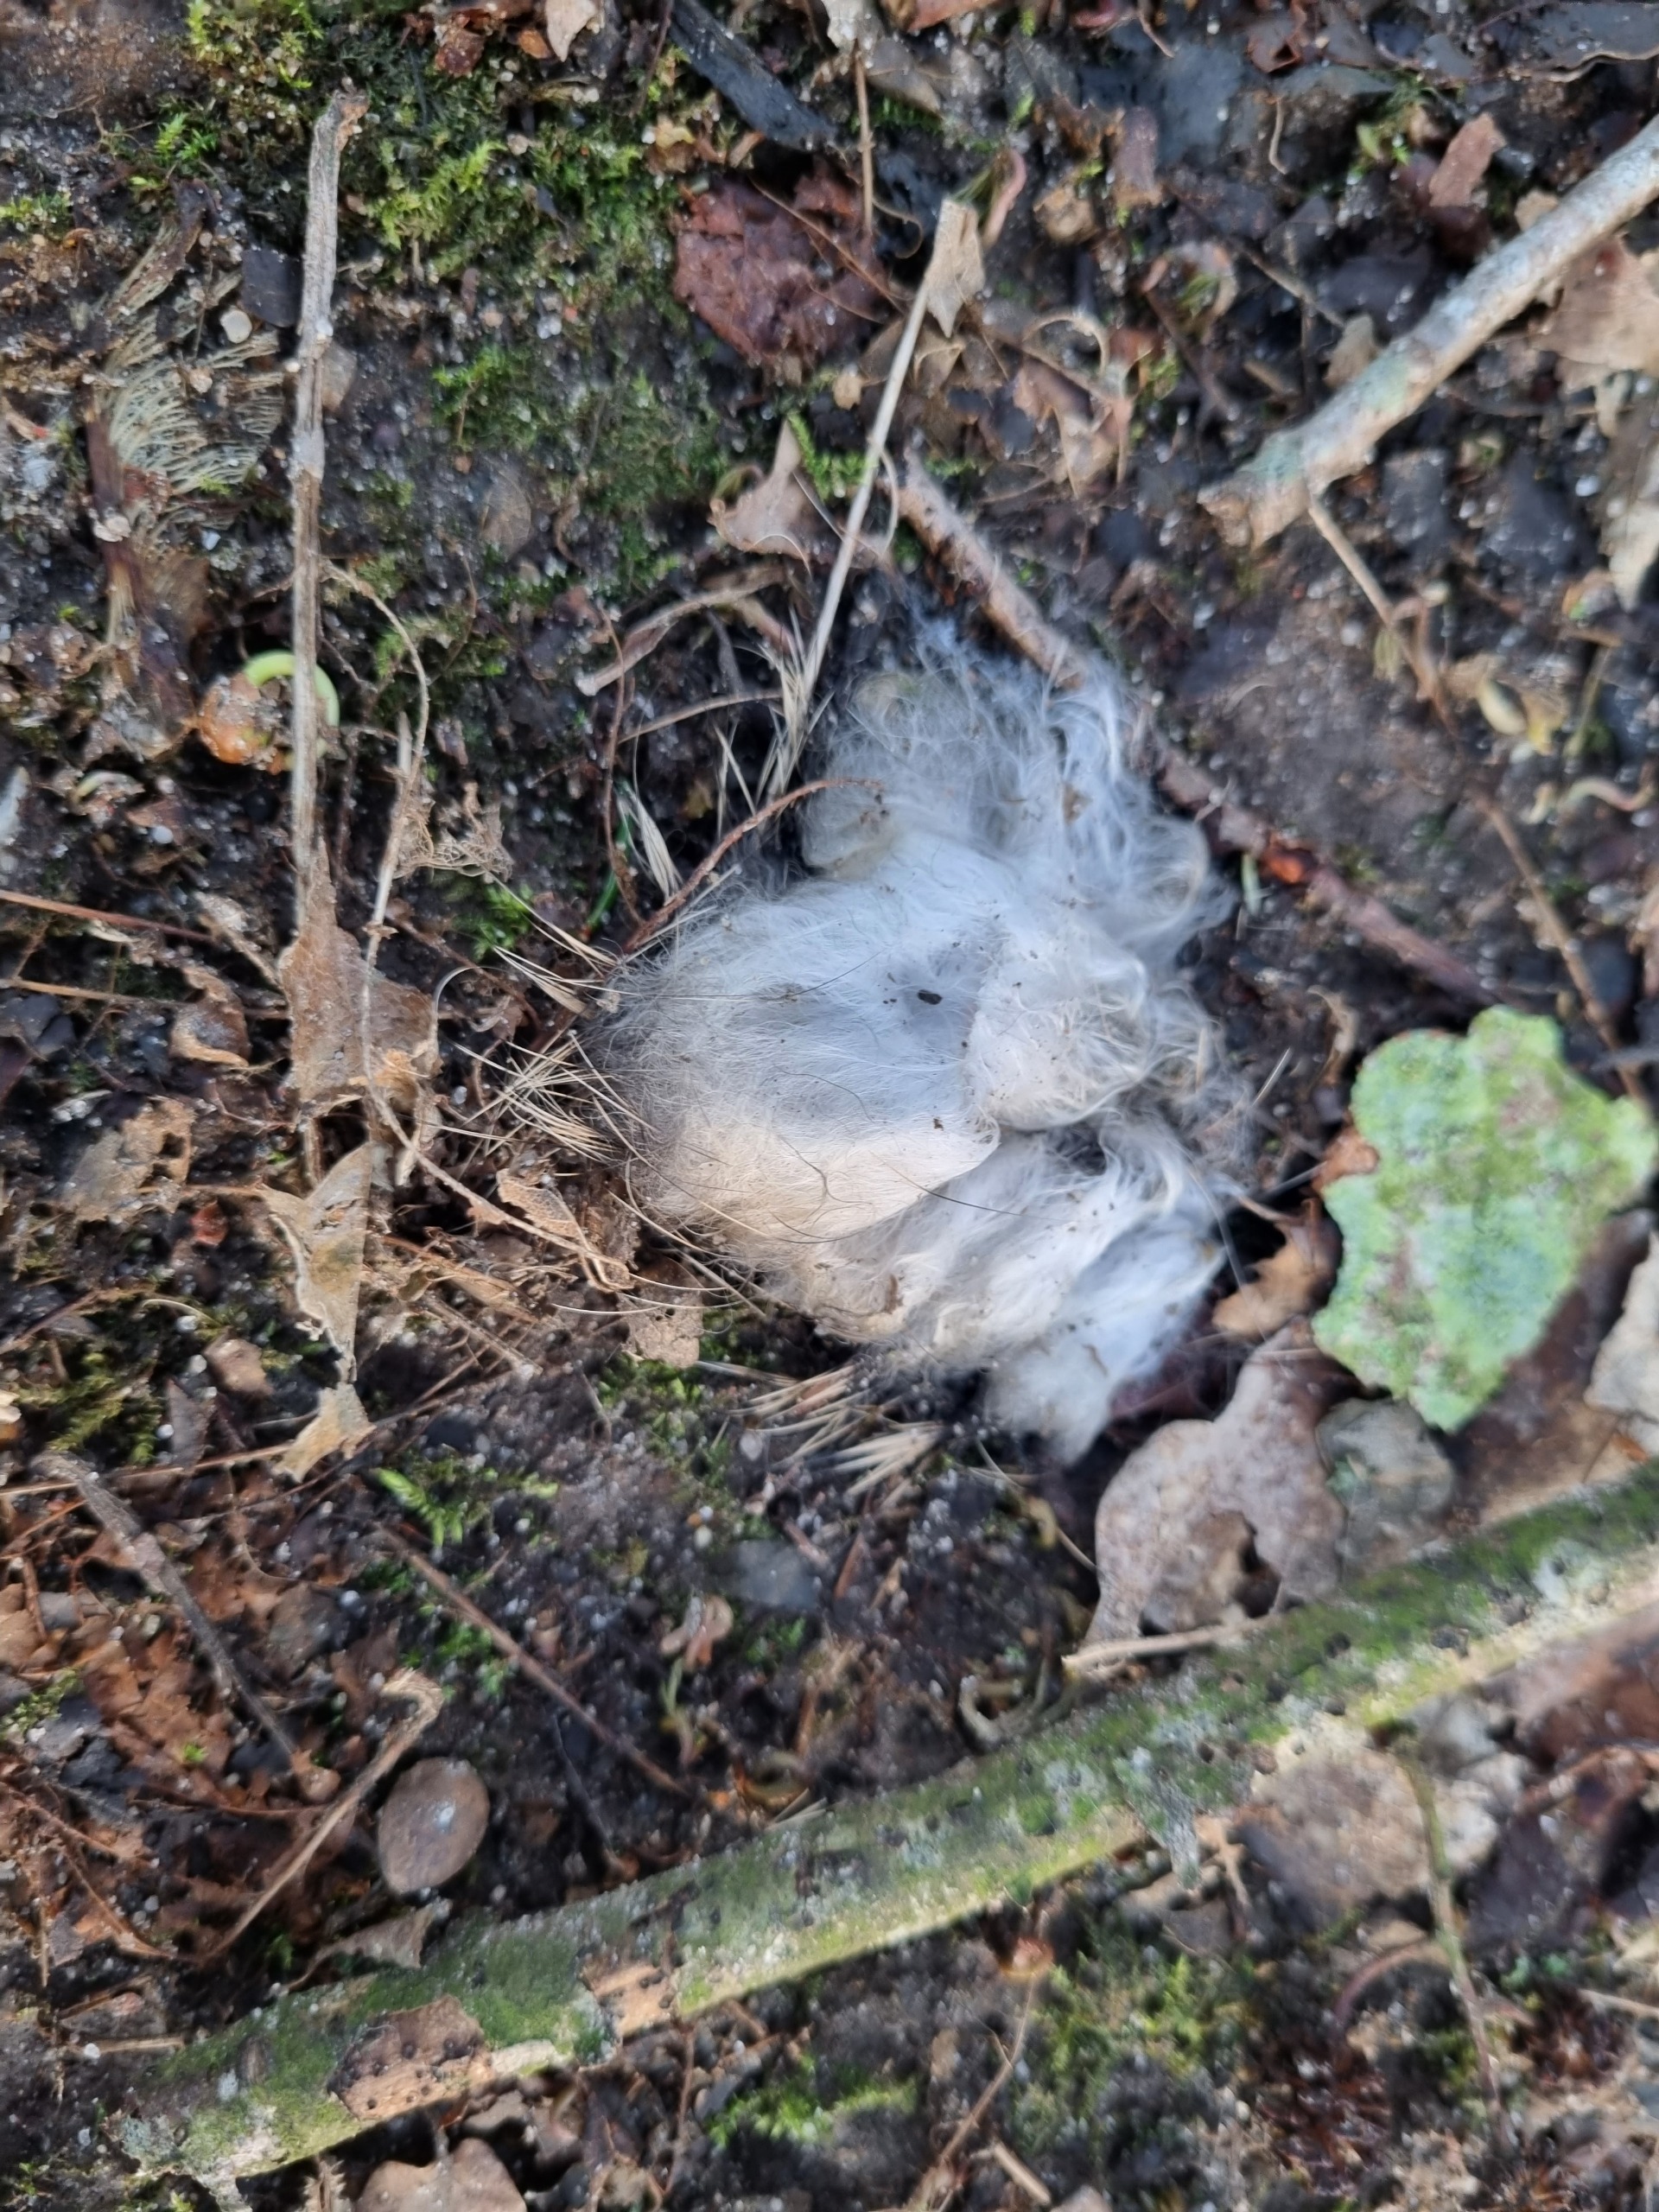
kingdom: Fungi
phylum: Basidiomycota
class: Tremellomycetes
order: Tremellales
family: Exidiaceae
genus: Exidiopsis
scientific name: Exidiopsis effusa
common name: Smuk bævrehinde
